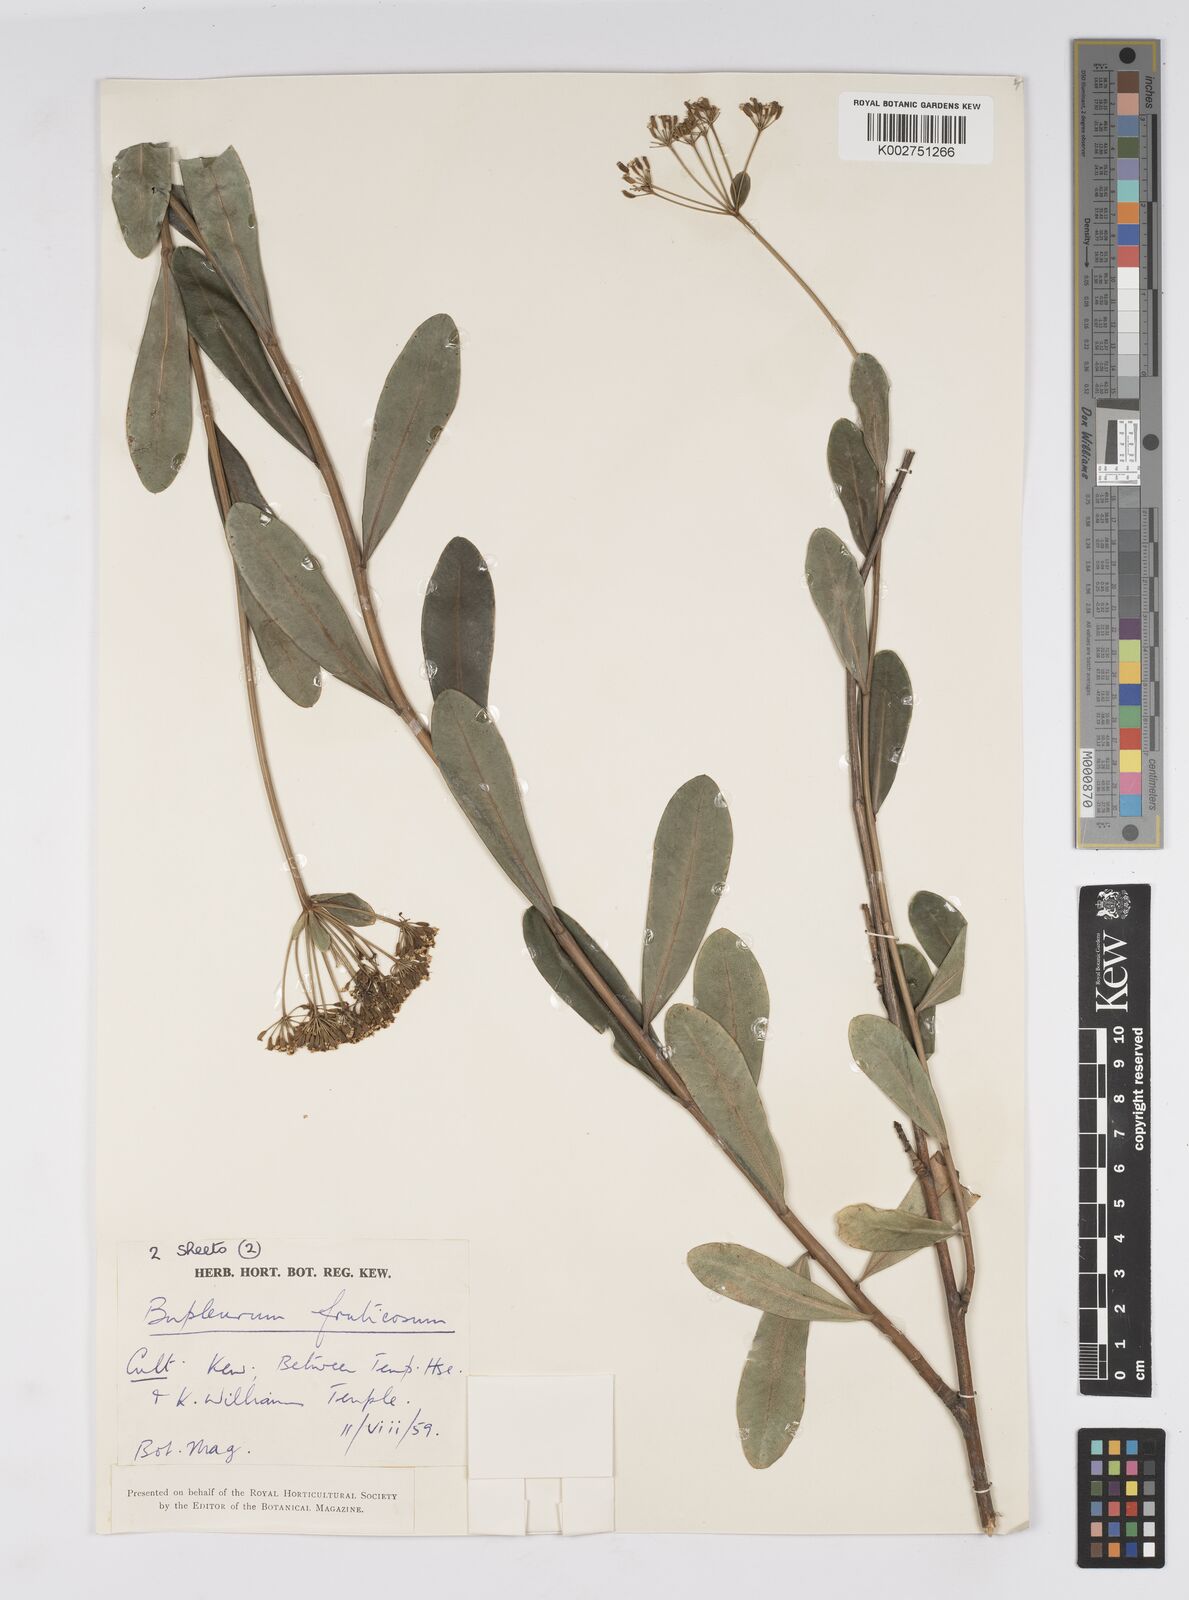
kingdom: Plantae
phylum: Tracheophyta
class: Magnoliopsida
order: Apiales
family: Apiaceae
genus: Bupleurum
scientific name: Bupleurum fruticosum
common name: Shrubby hare's-ear
